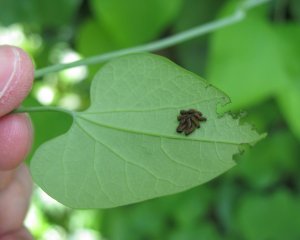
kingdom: Animalia
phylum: Arthropoda
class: Insecta
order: Lepidoptera
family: Papilionidae
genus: Battus
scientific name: Battus polydamas
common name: Polydamas Swallowtail
